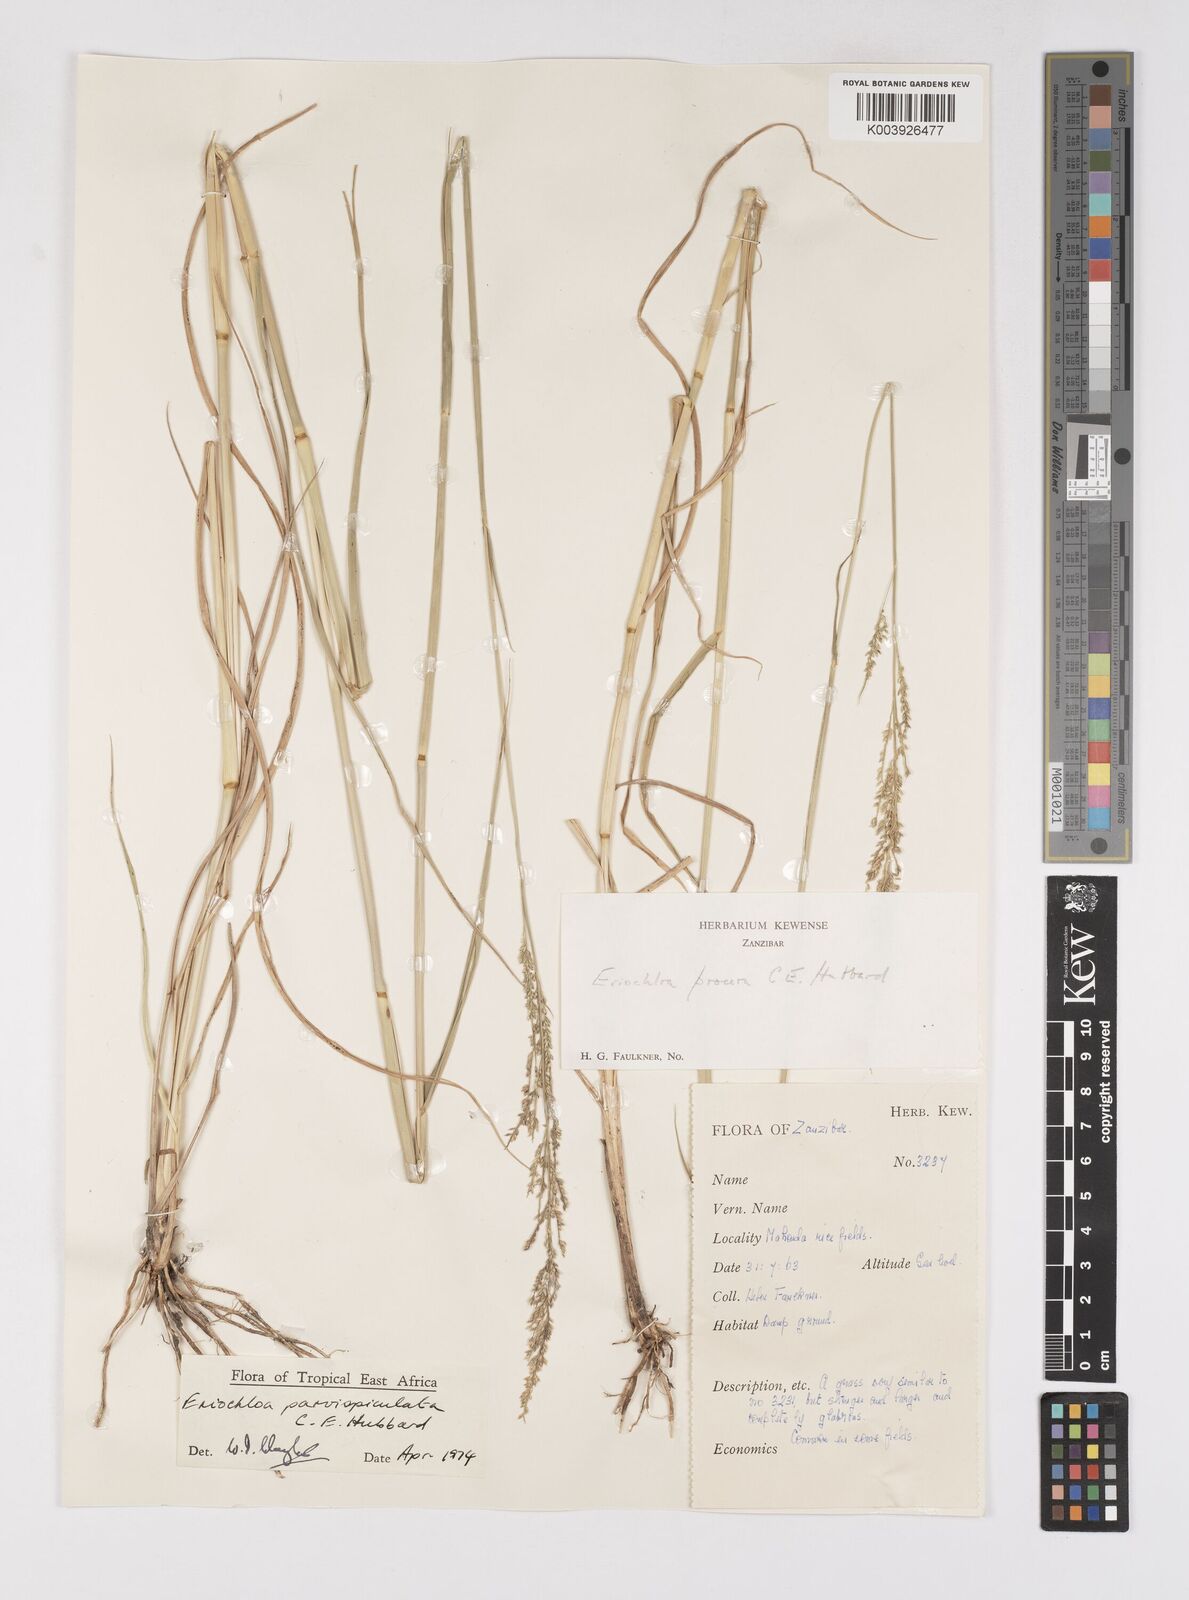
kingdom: Plantae
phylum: Tracheophyta
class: Liliopsida
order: Poales
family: Poaceae
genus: Eriochloa
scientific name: Eriochloa parvispiculata
